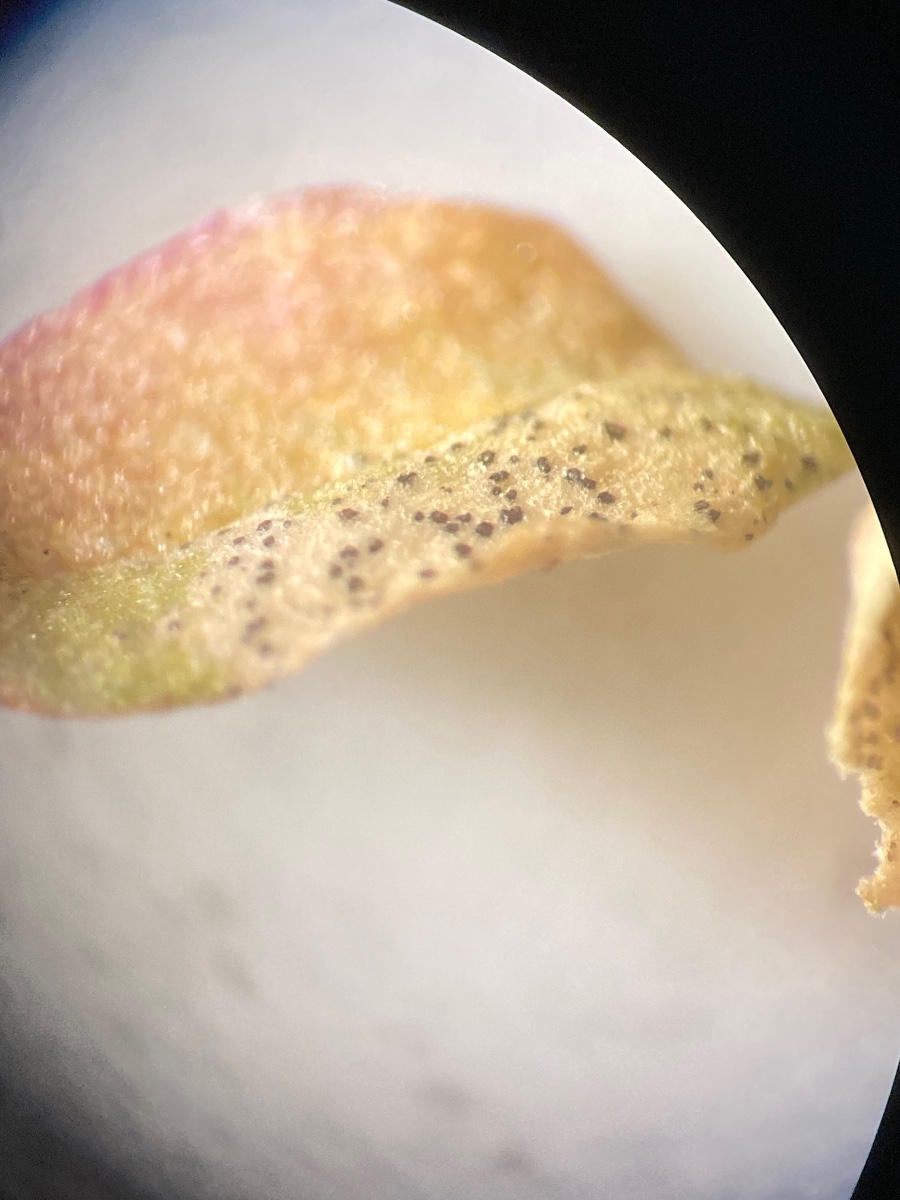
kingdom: Fungi
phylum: Ascomycota
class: Dothideomycetes
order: Mycosphaerellales
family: Mycosphaerellaceae
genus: Septoria
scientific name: Septoria stellariae
